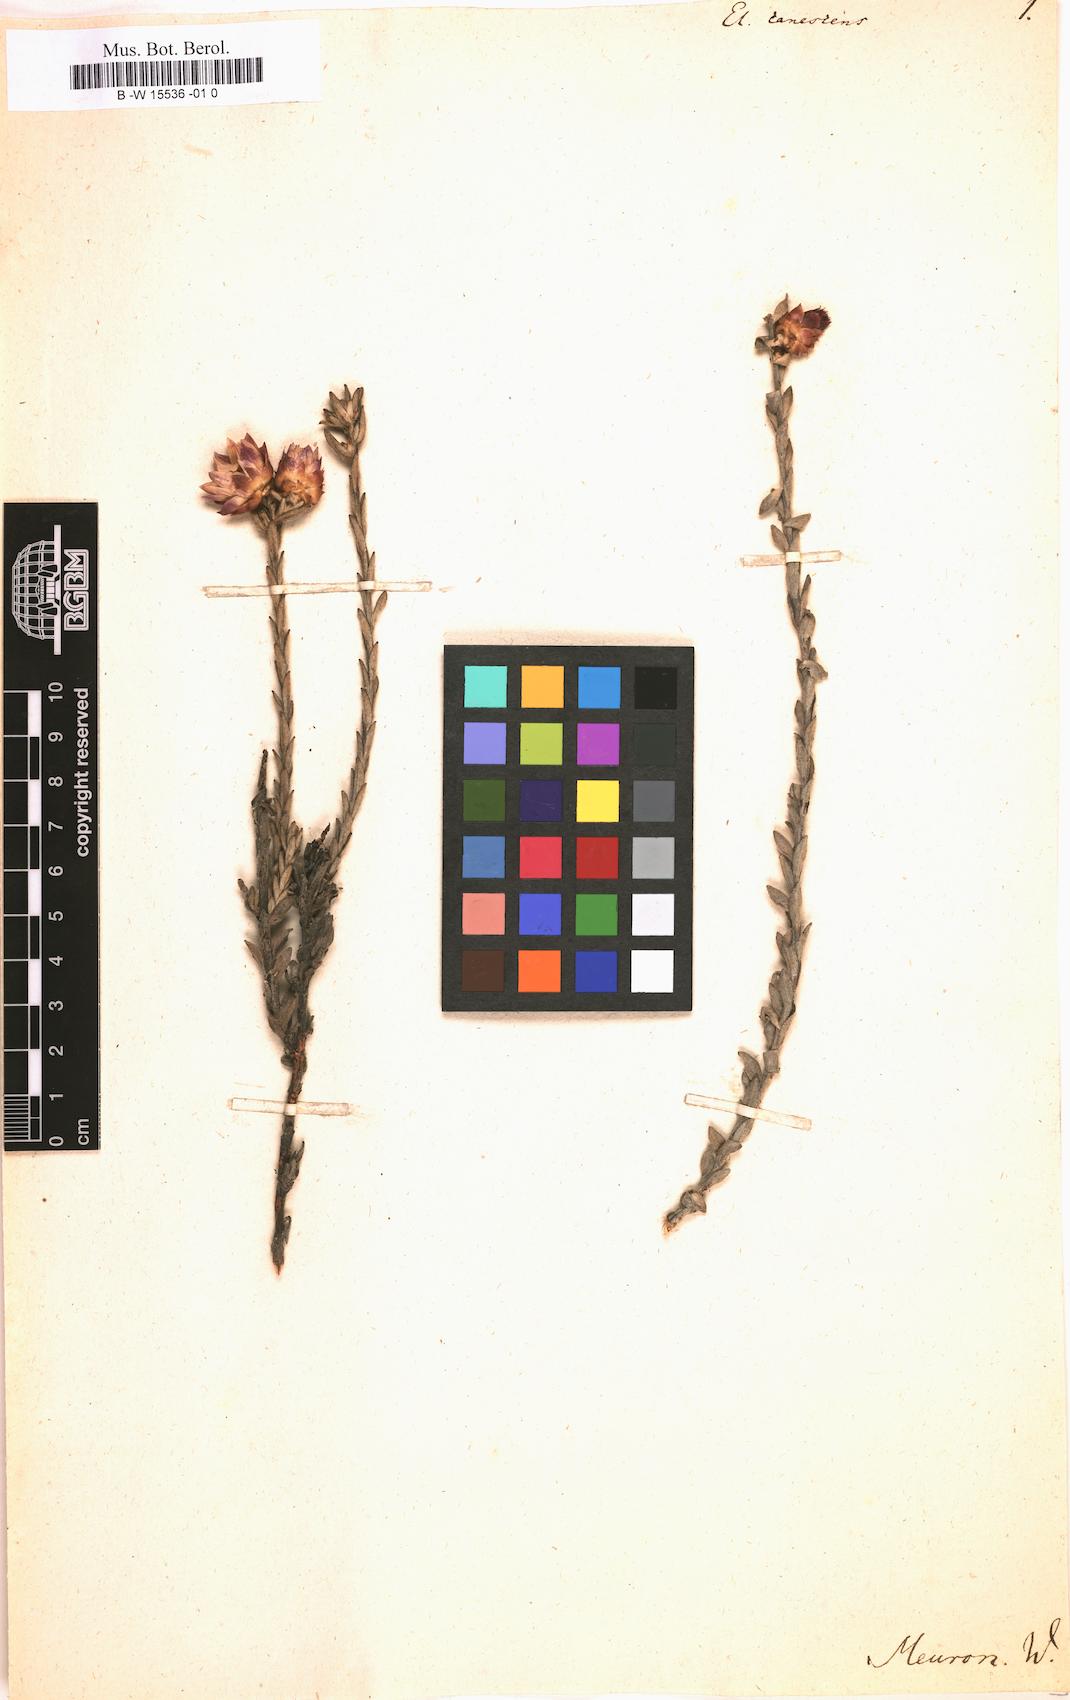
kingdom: Plantae
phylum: Tracheophyta
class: Magnoliopsida
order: Asterales
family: Asteraceae
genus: Helichrysum
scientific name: Helichrysum
